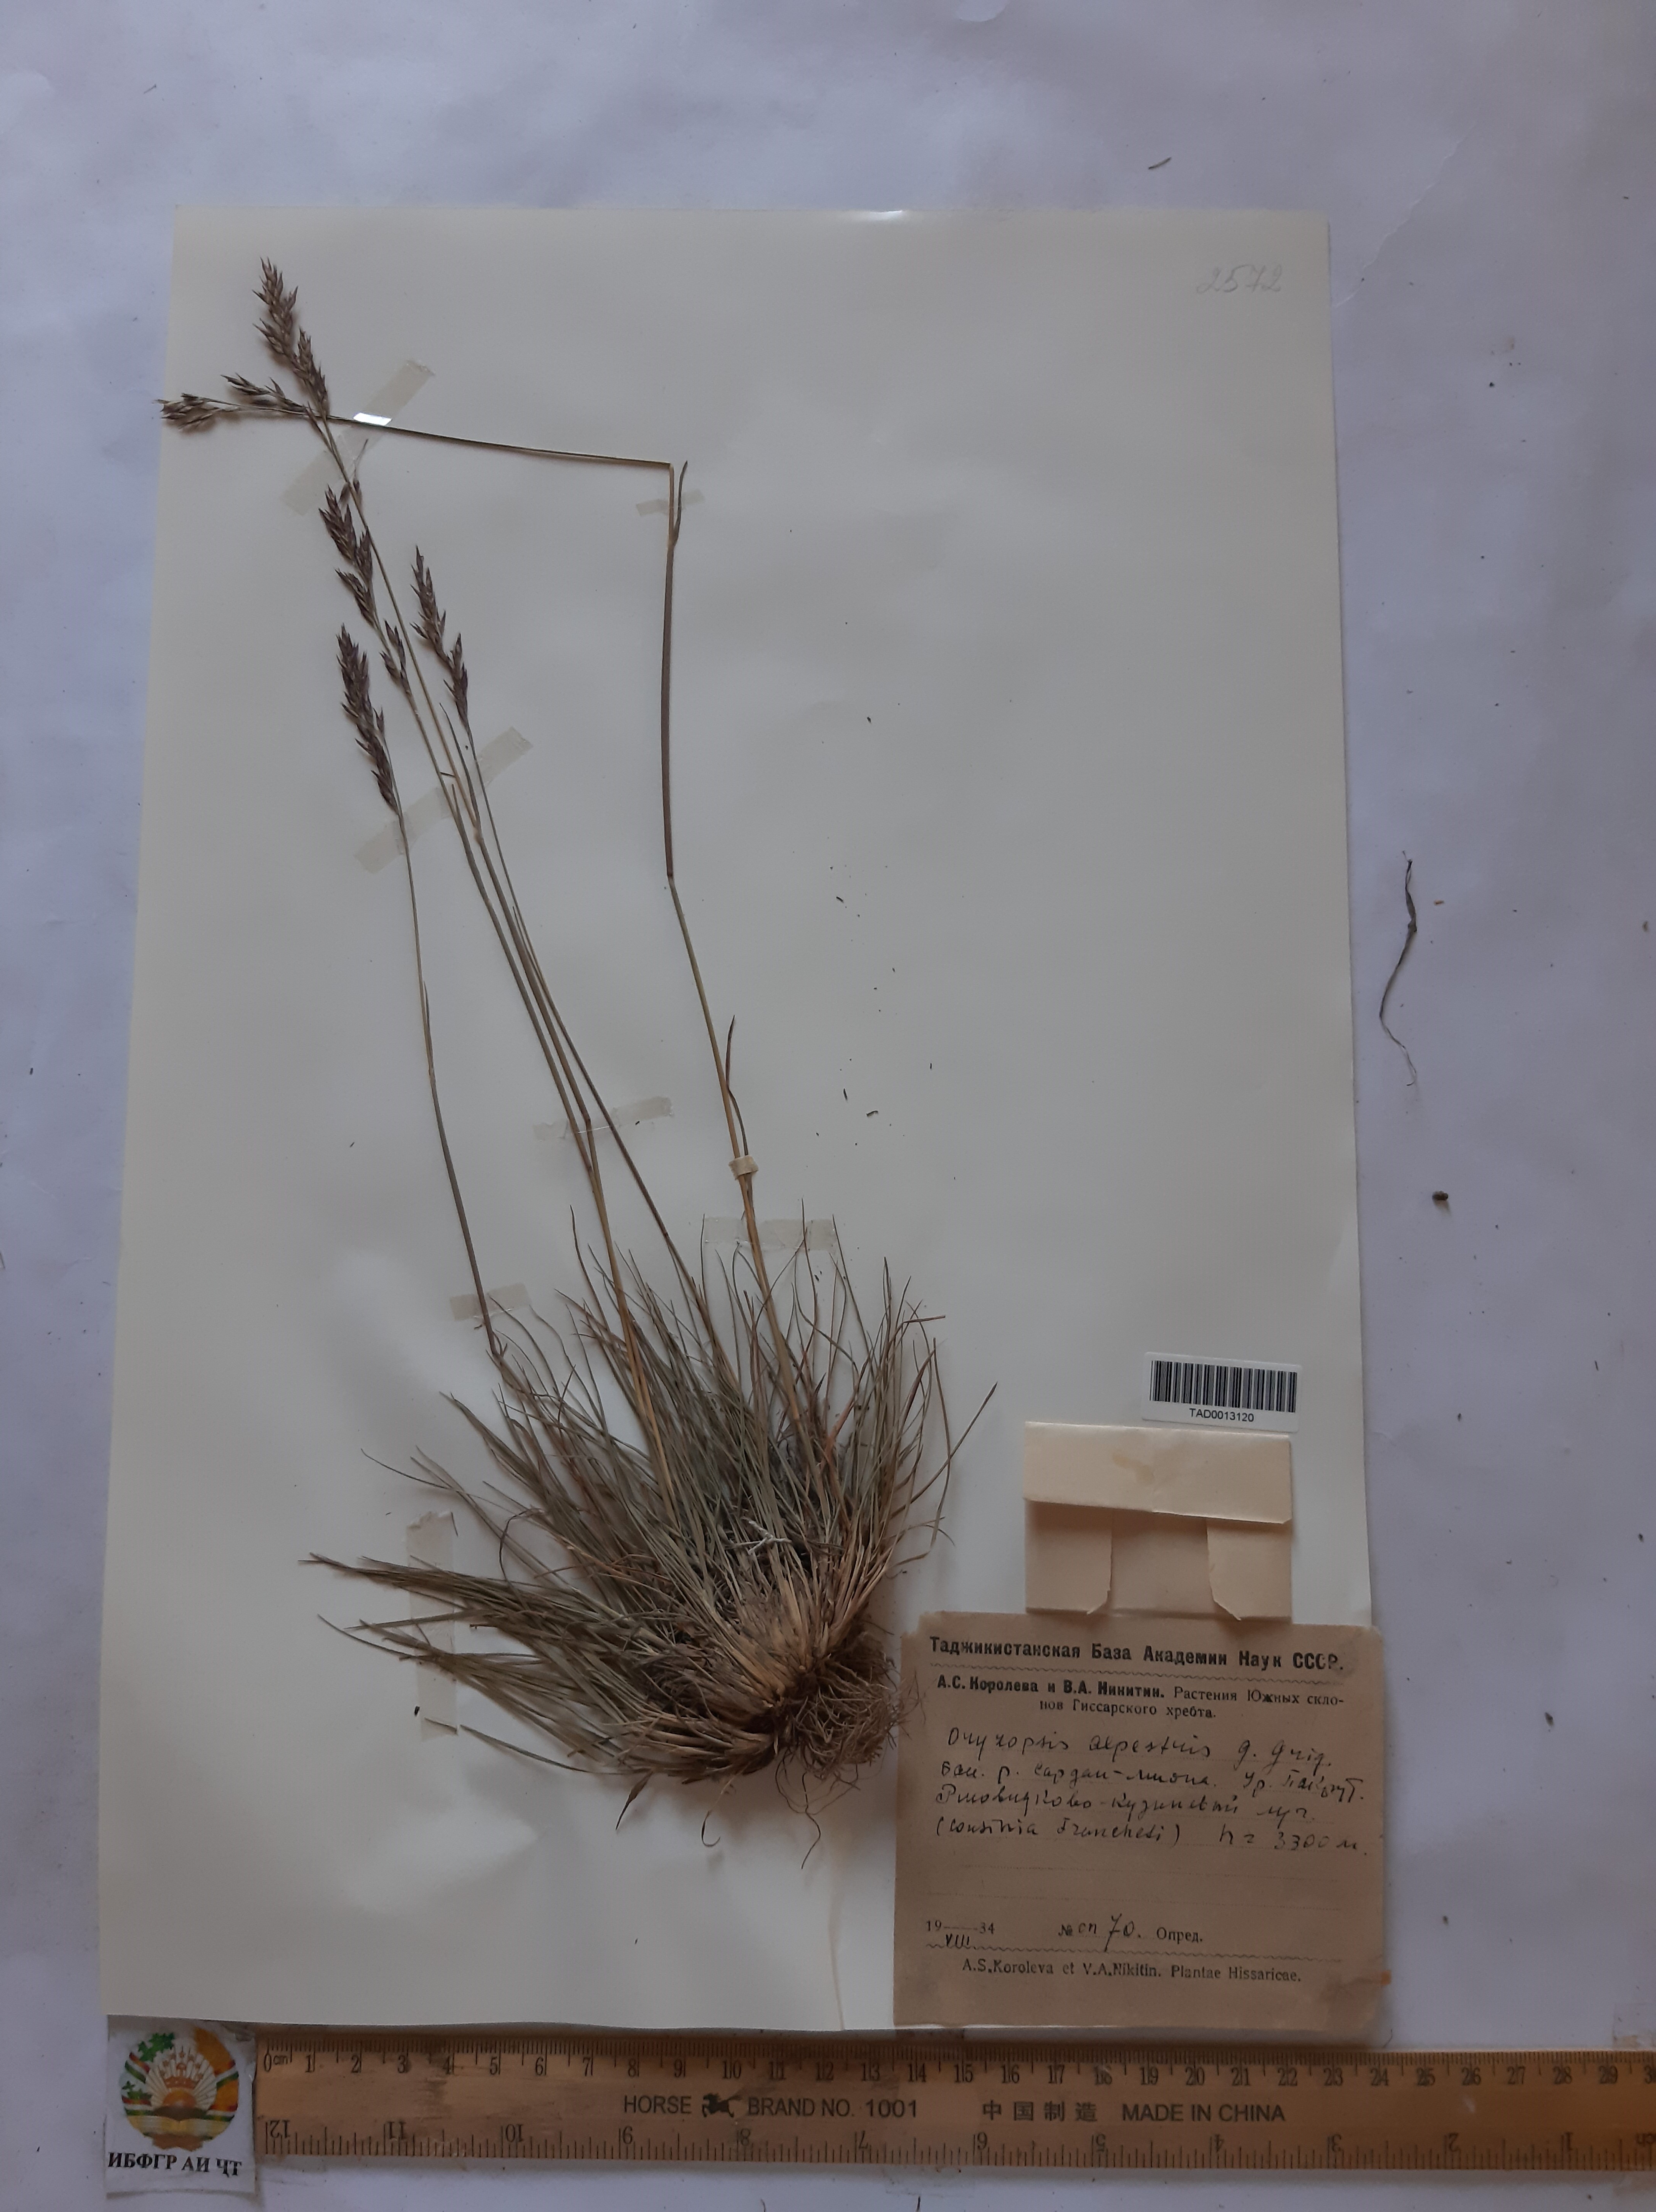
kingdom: Plantae
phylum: Tracheophyta
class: Liliopsida
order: Poales
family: Poaceae
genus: Piptatherum
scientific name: Piptatherum alpestre
